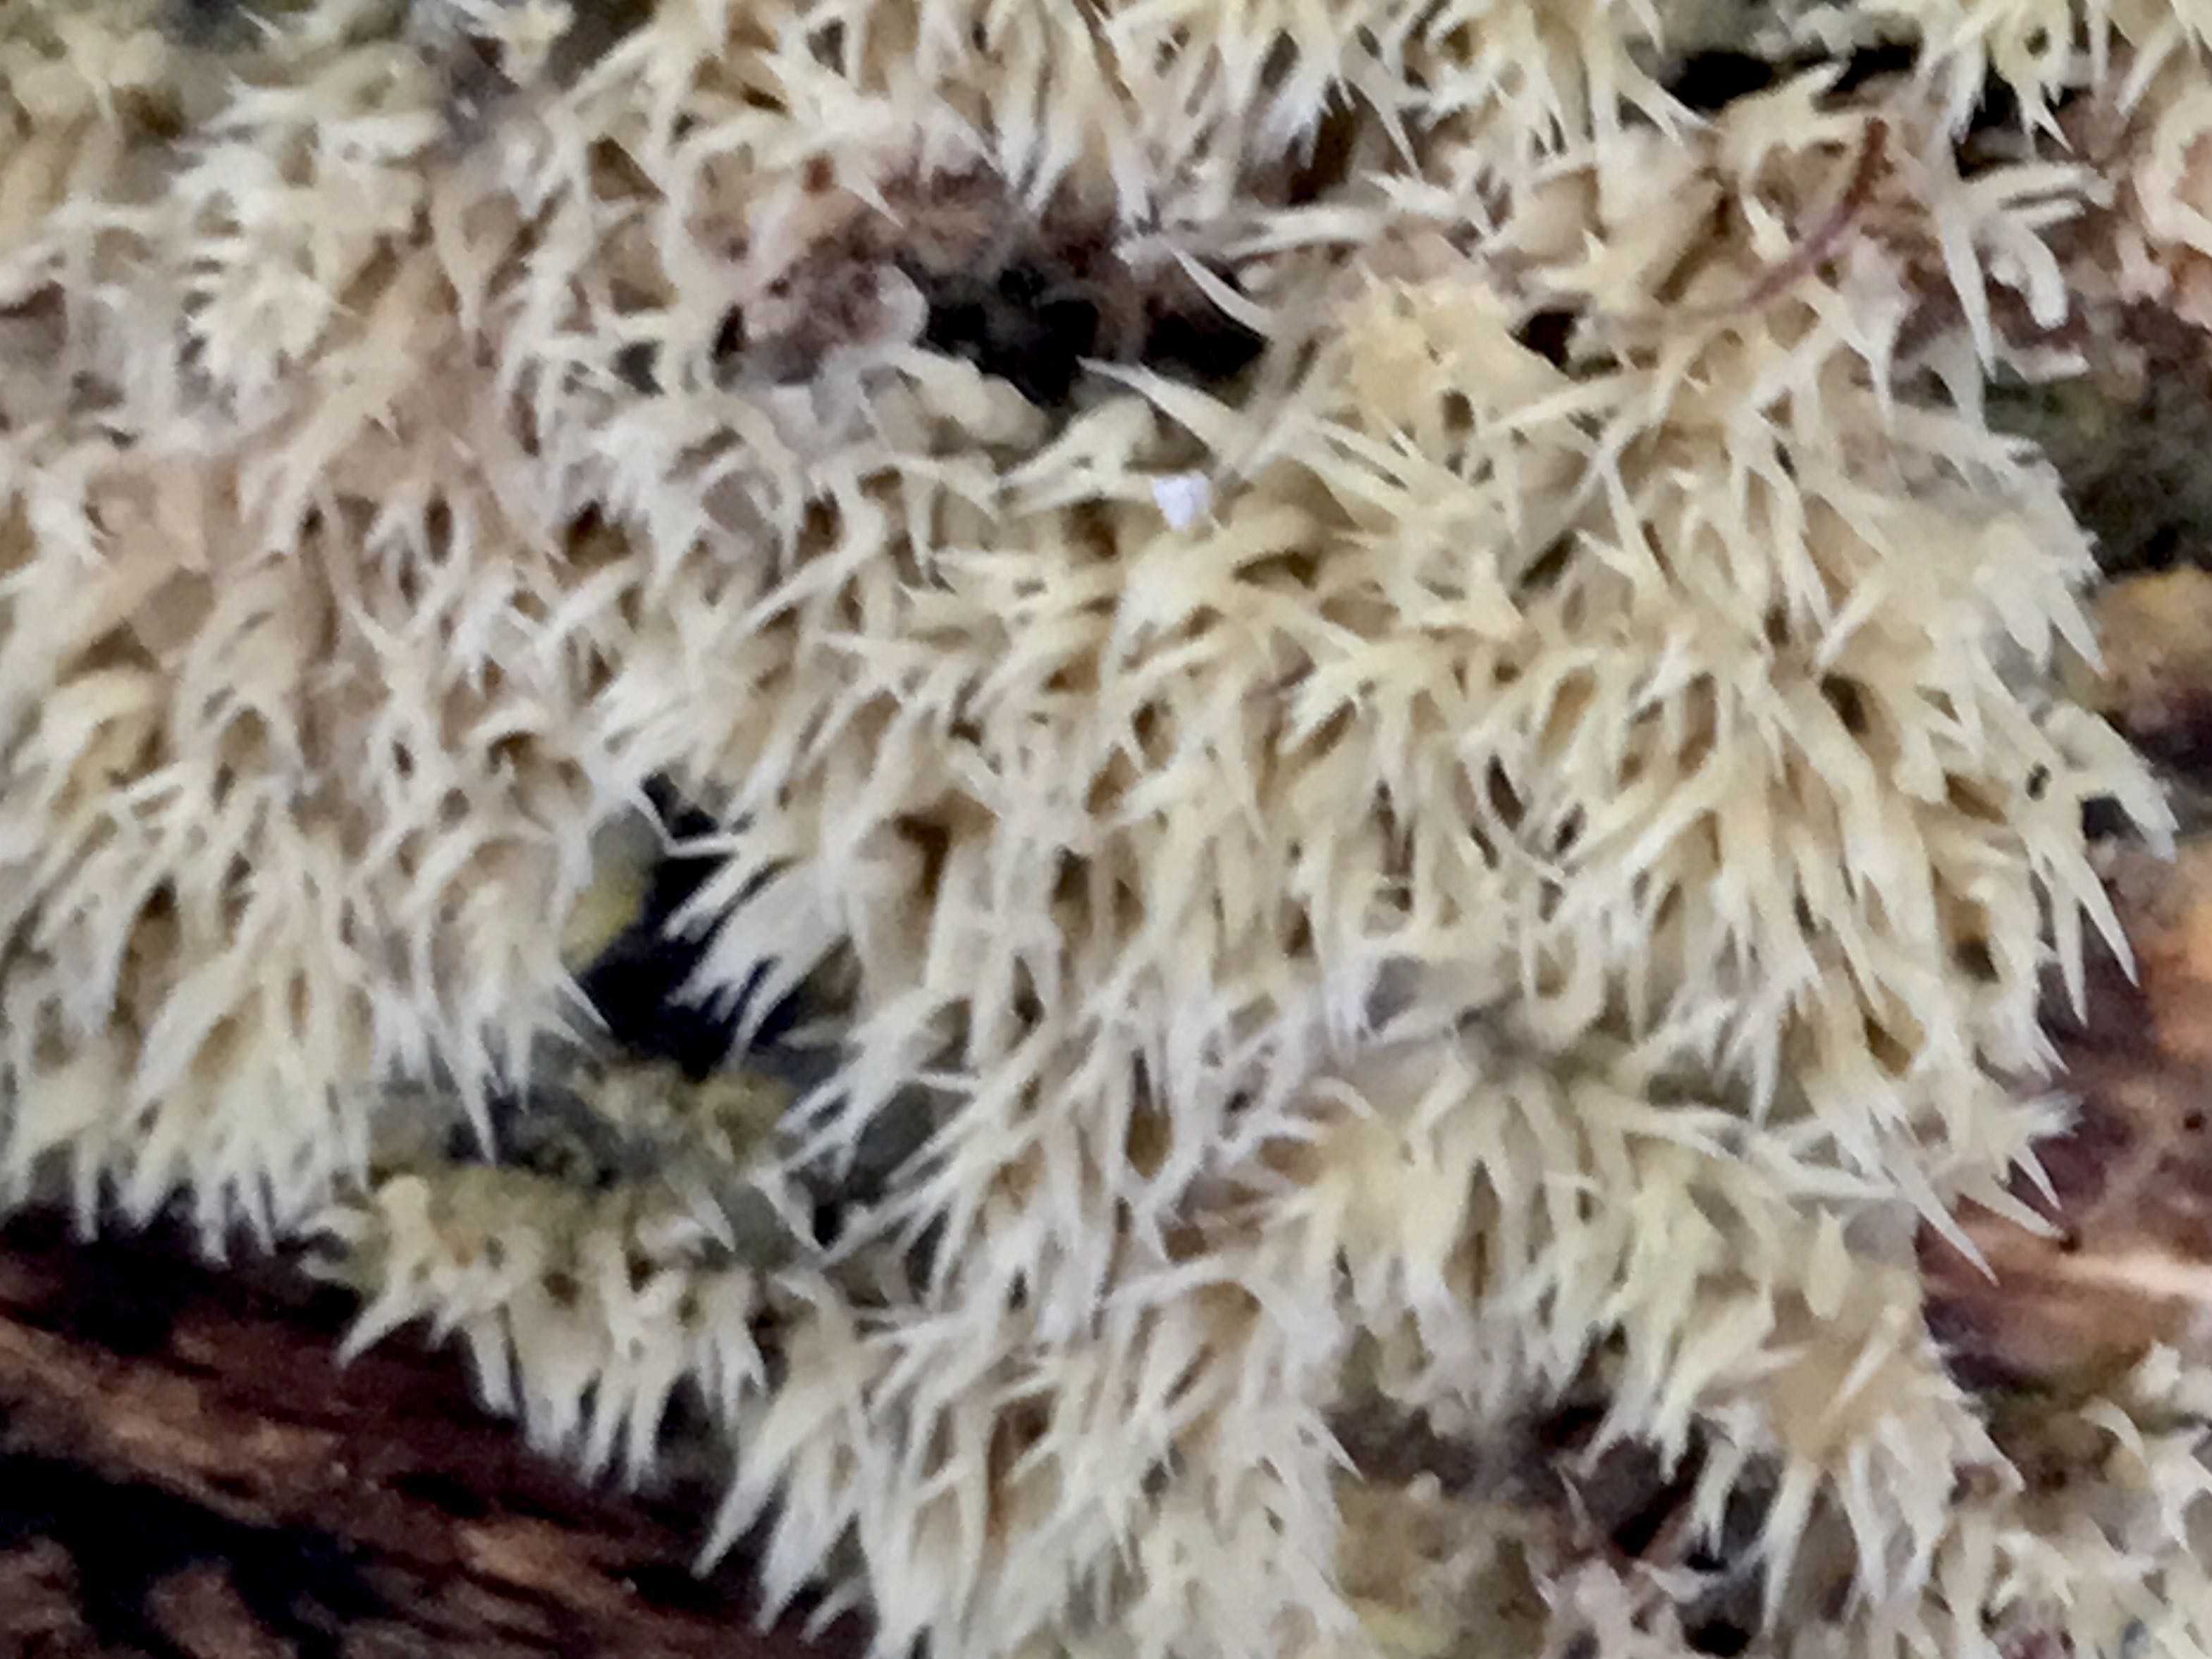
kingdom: Fungi
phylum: Basidiomycota
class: Agaricomycetes
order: Polyporales
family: Meruliaceae
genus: Mycoacia
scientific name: Mycoacia uda
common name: citrongul vokspig
